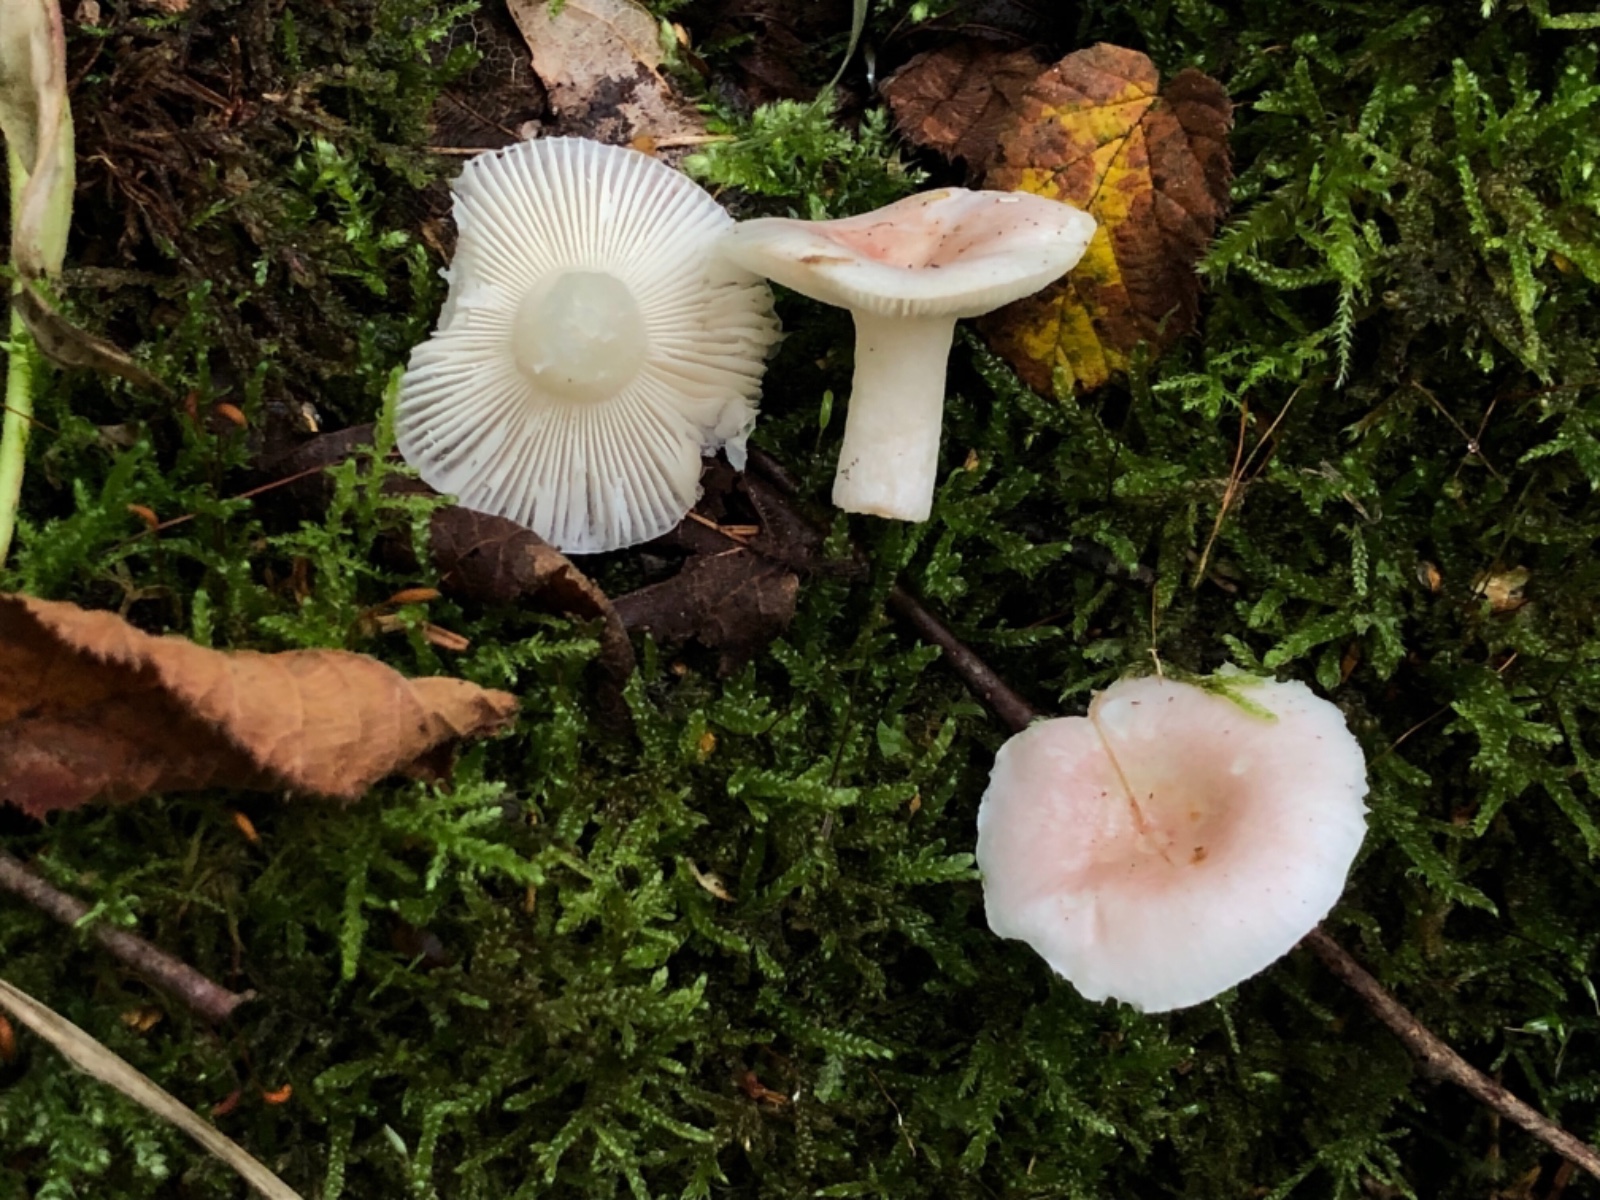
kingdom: Fungi
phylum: Basidiomycota
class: Agaricomycetes
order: Russulales
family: Russulaceae
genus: Russula
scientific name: Russula betularum
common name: bleg gift-skørhat
